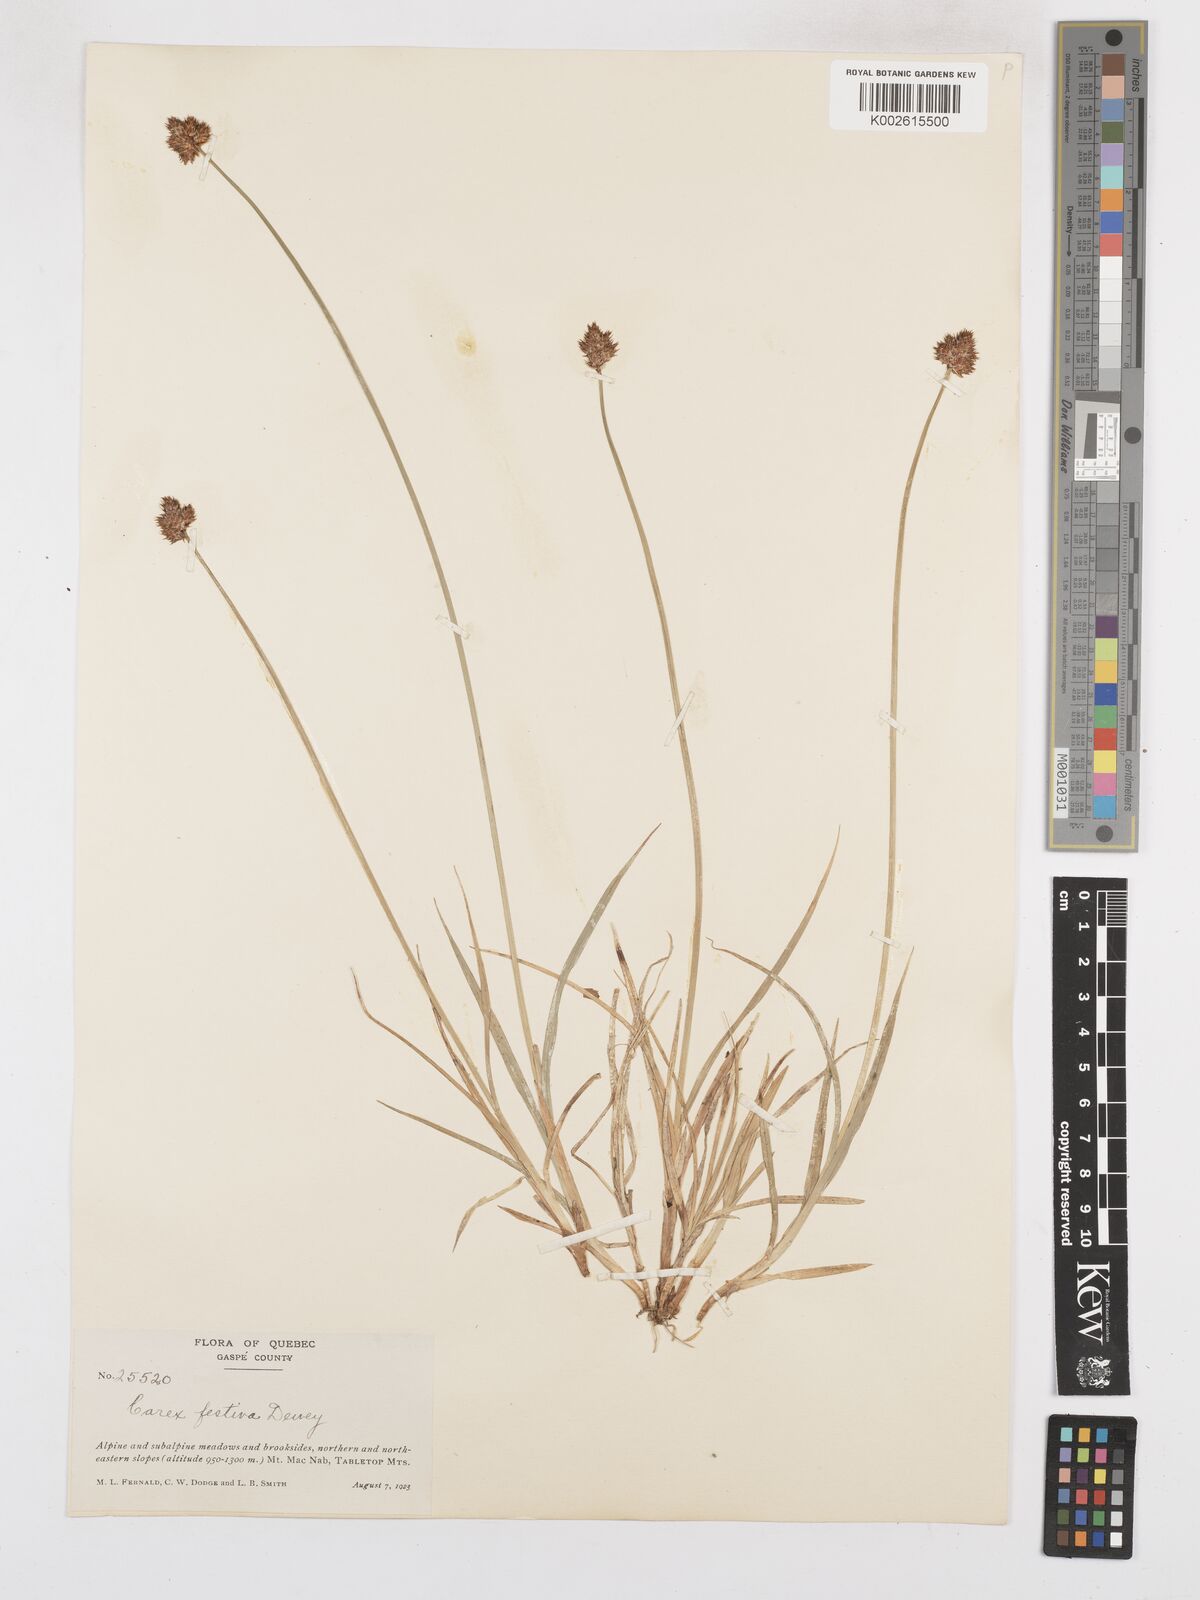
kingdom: Plantae
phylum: Tracheophyta
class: Liliopsida
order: Poales
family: Cyperaceae
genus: Carex
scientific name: Carex macloviana
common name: Falkland island sedge
